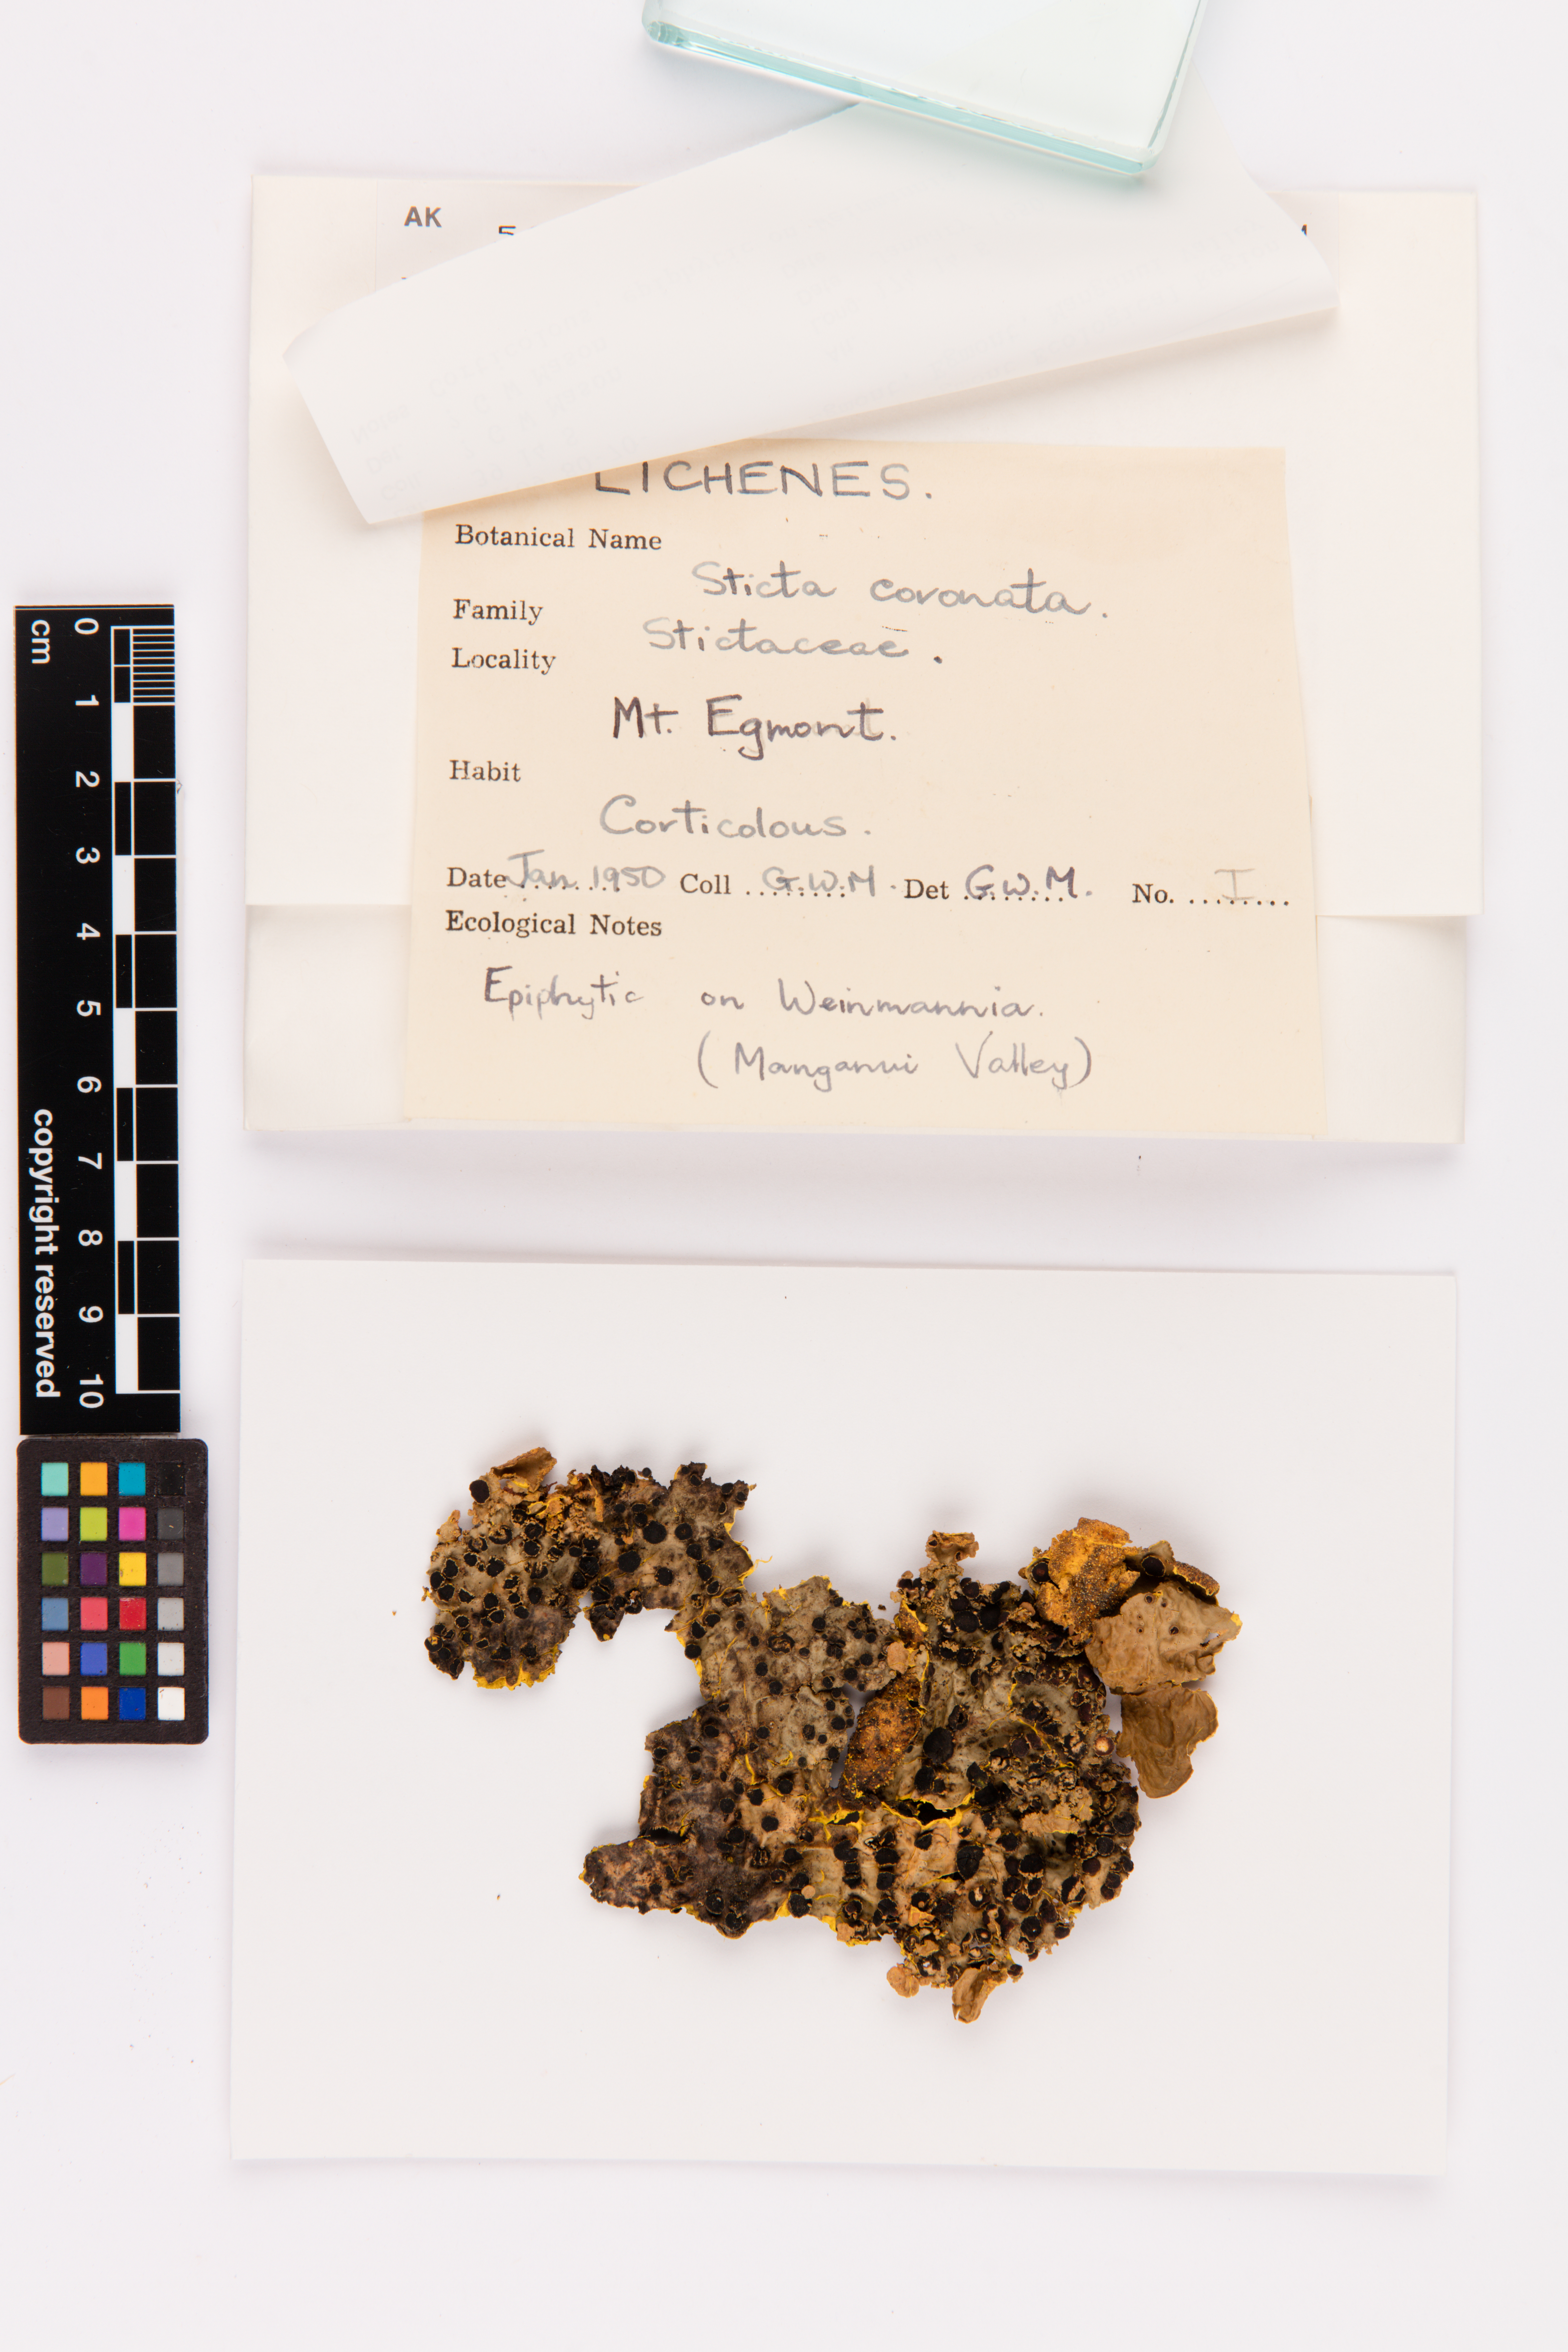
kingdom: Fungi
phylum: Ascomycota
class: Lecanoromycetes
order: Peltigerales
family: Lobariaceae
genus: Yarrumia
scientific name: Yarrumia coronata
